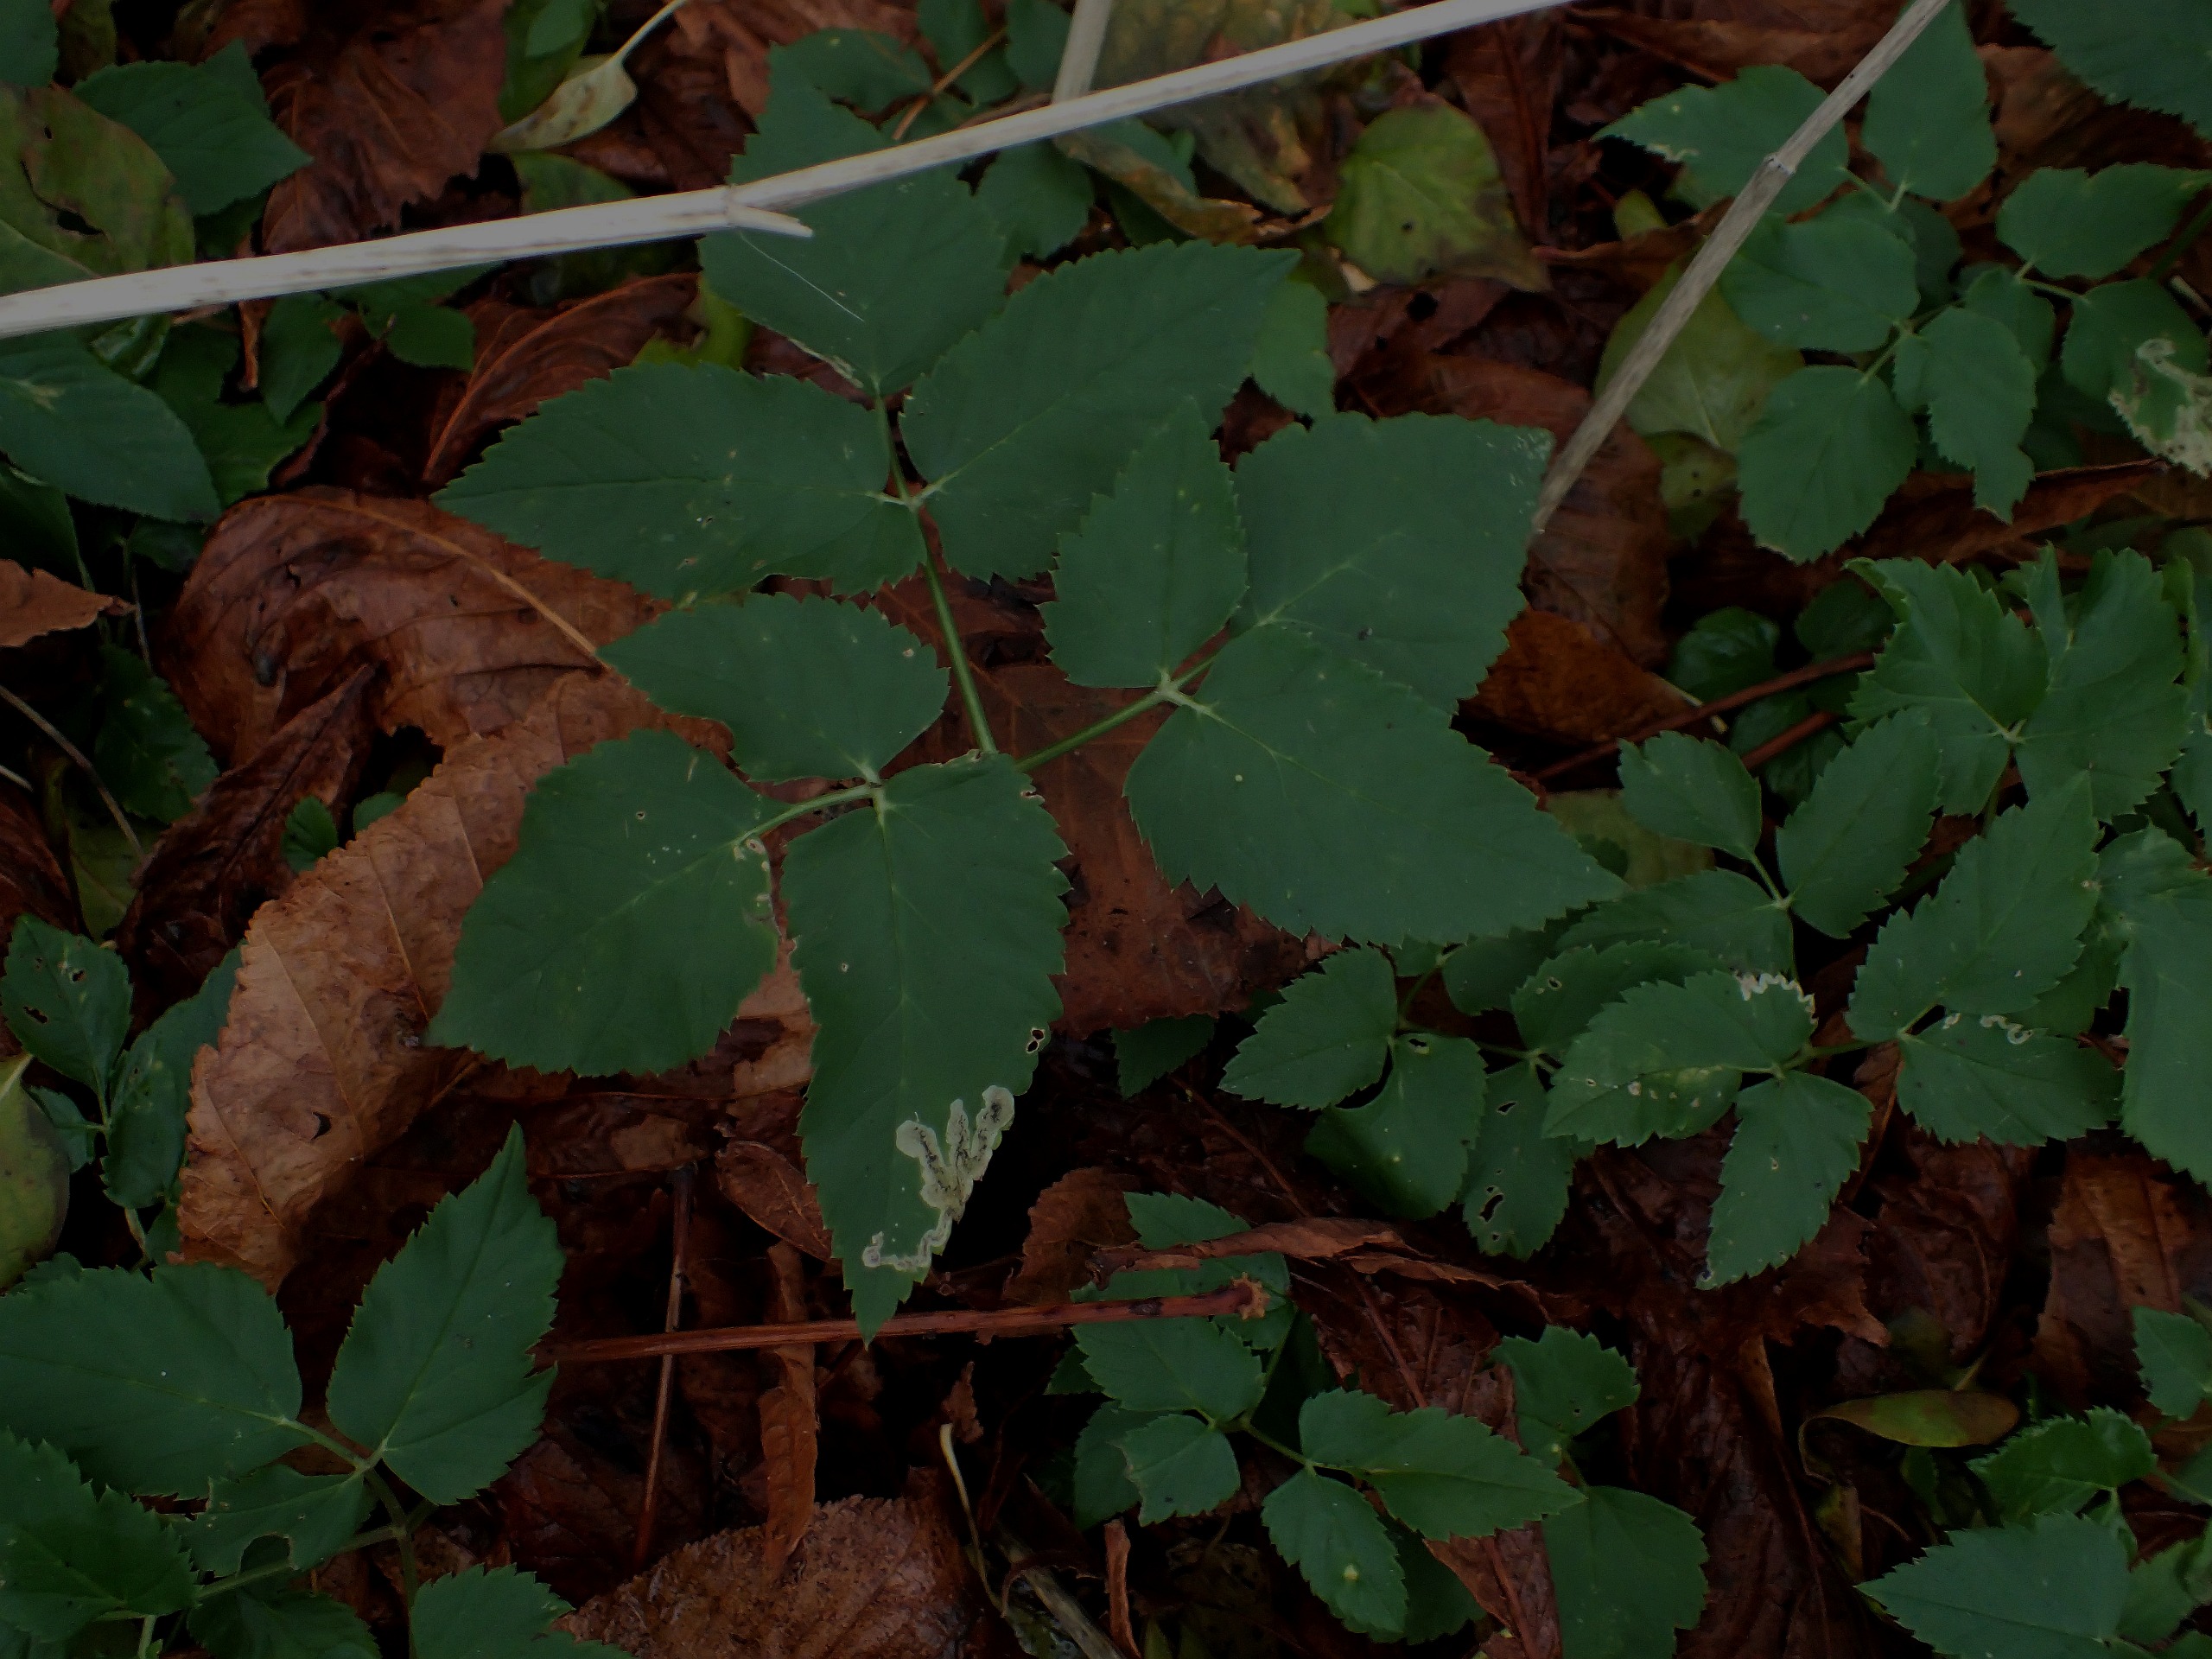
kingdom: Plantae
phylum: Tracheophyta
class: Magnoliopsida
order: Apiales
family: Apiaceae
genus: Aegopodium
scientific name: Aegopodium podagraria
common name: Skvalderkål
